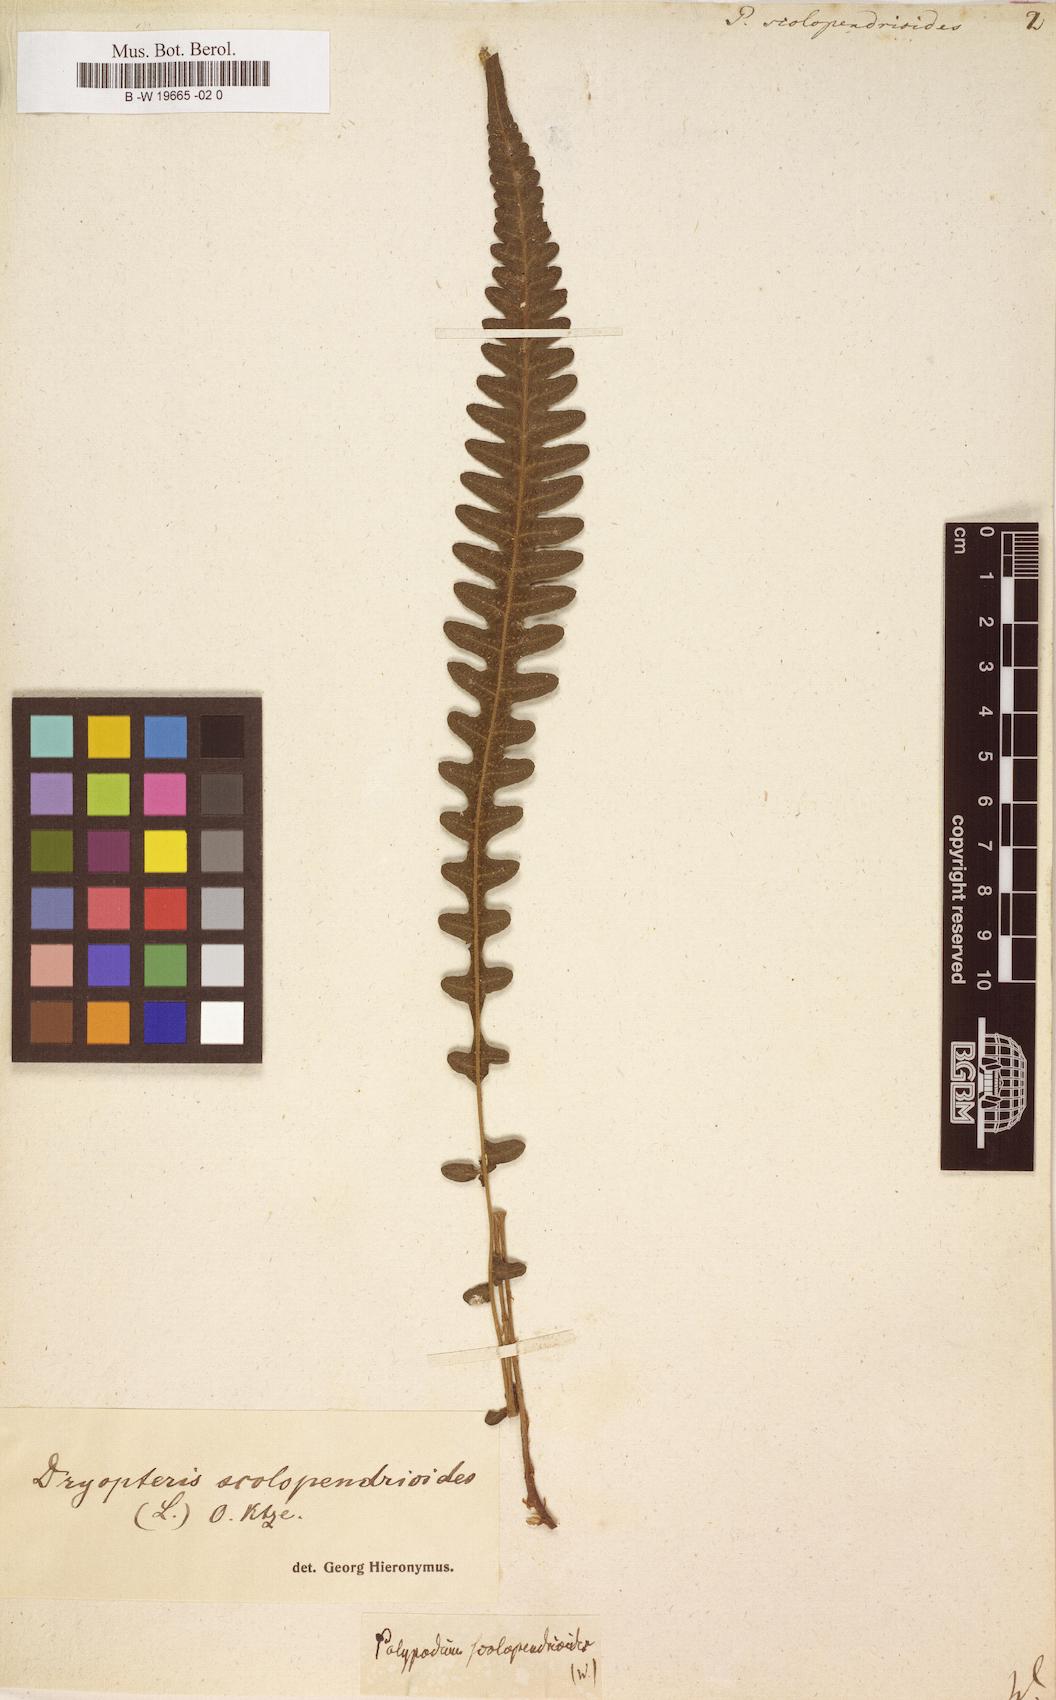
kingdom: Plantae
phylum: Tracheophyta
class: Polypodiopsida
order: Polypodiales
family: Polypodiaceae
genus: Enterosora
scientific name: Enterosora trifurcata
